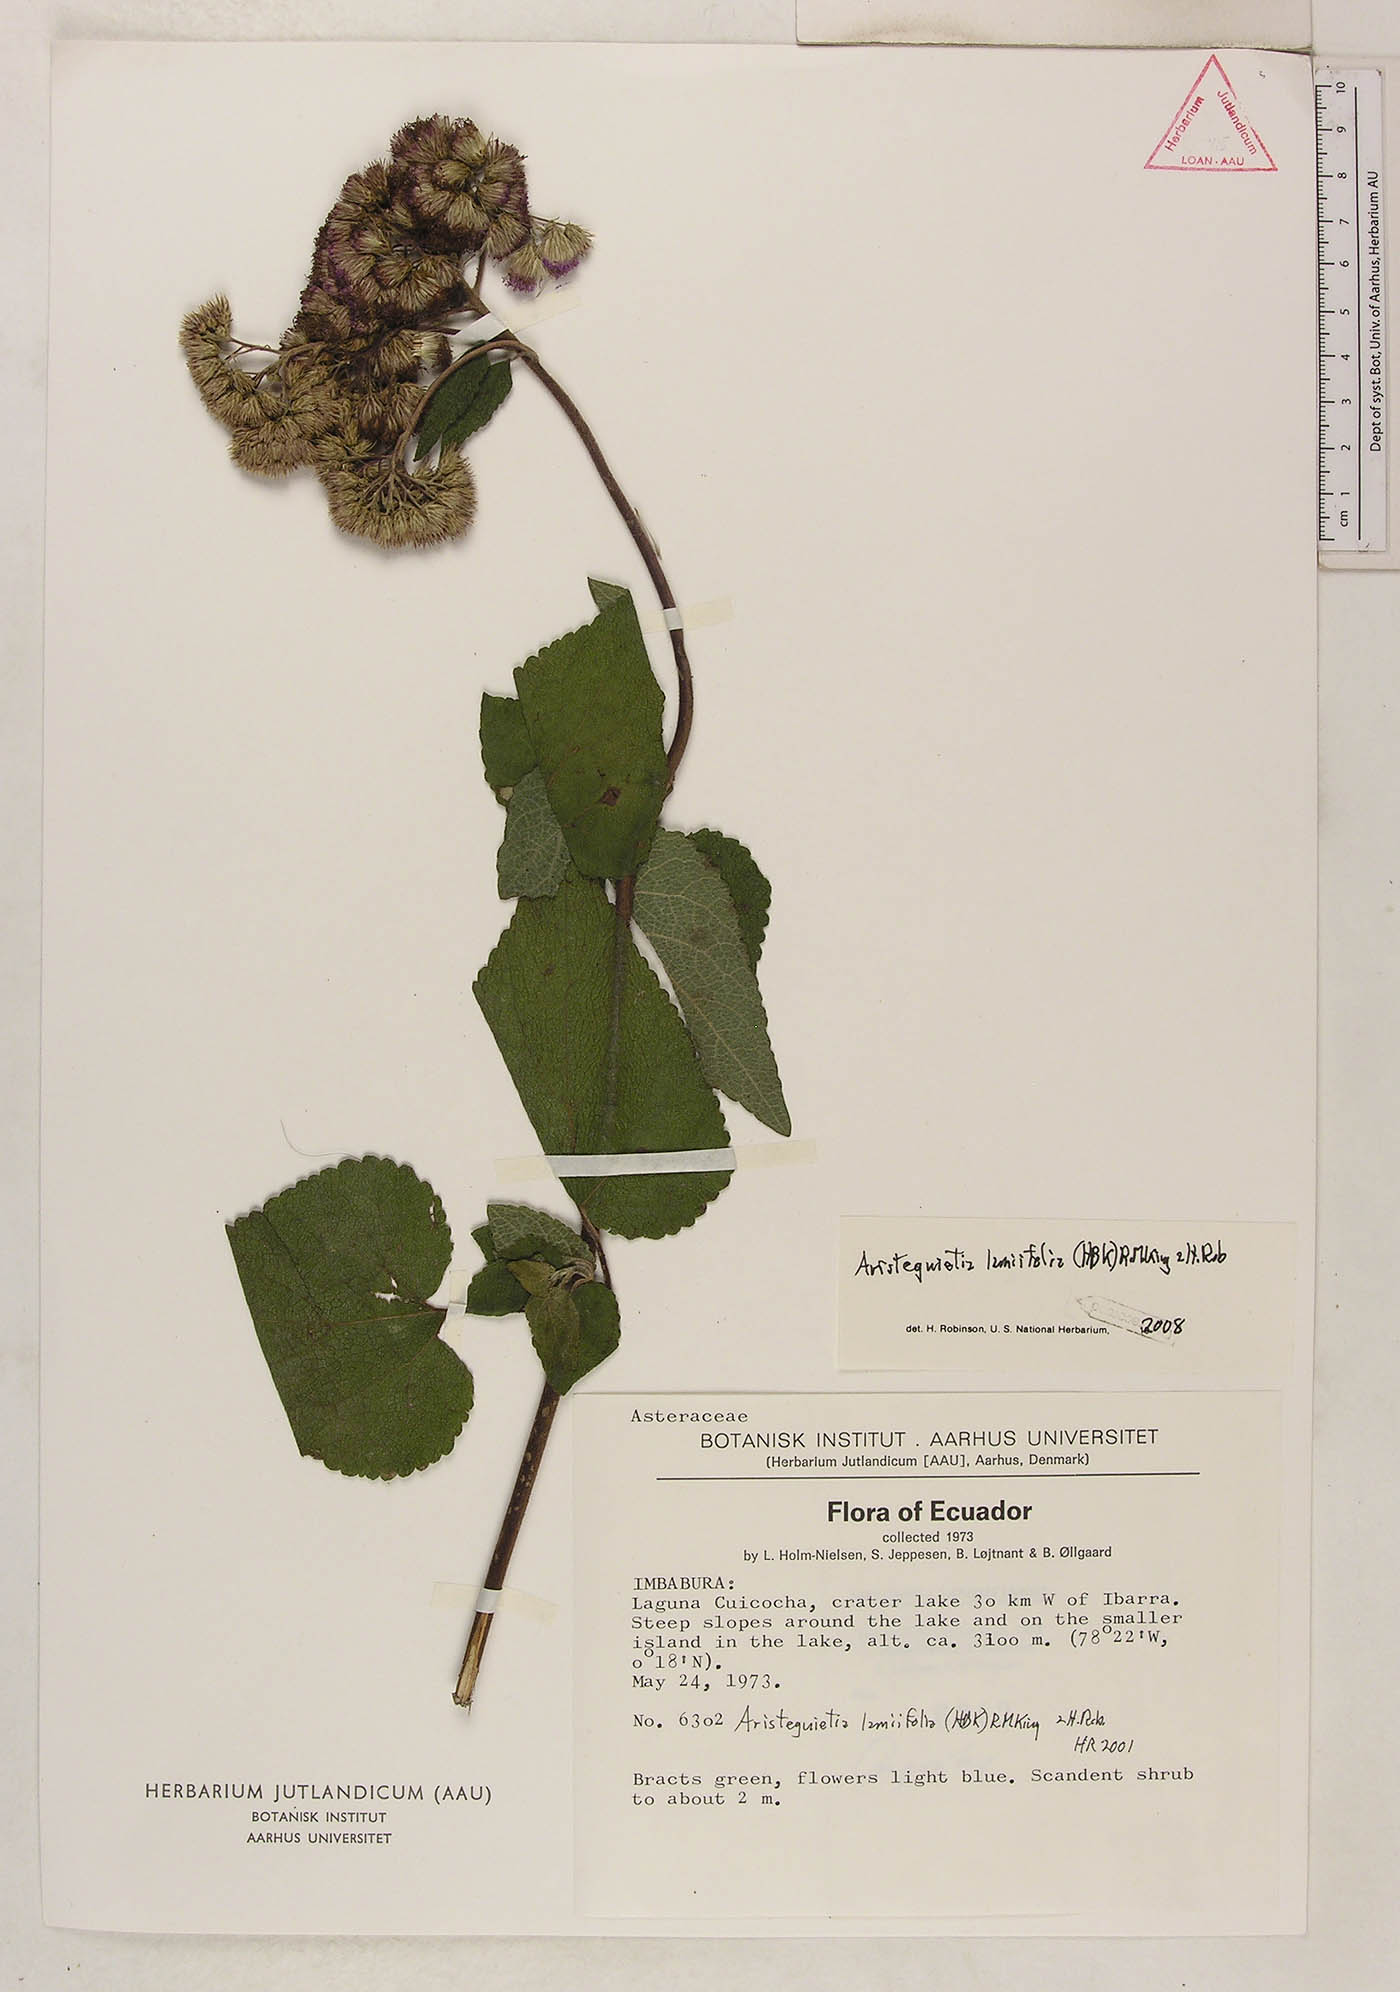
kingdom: Plantae
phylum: Tracheophyta
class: Magnoliopsida
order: Asterales
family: Asteraceae
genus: Aristeguietia
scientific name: Aristeguietia lamiifolia
